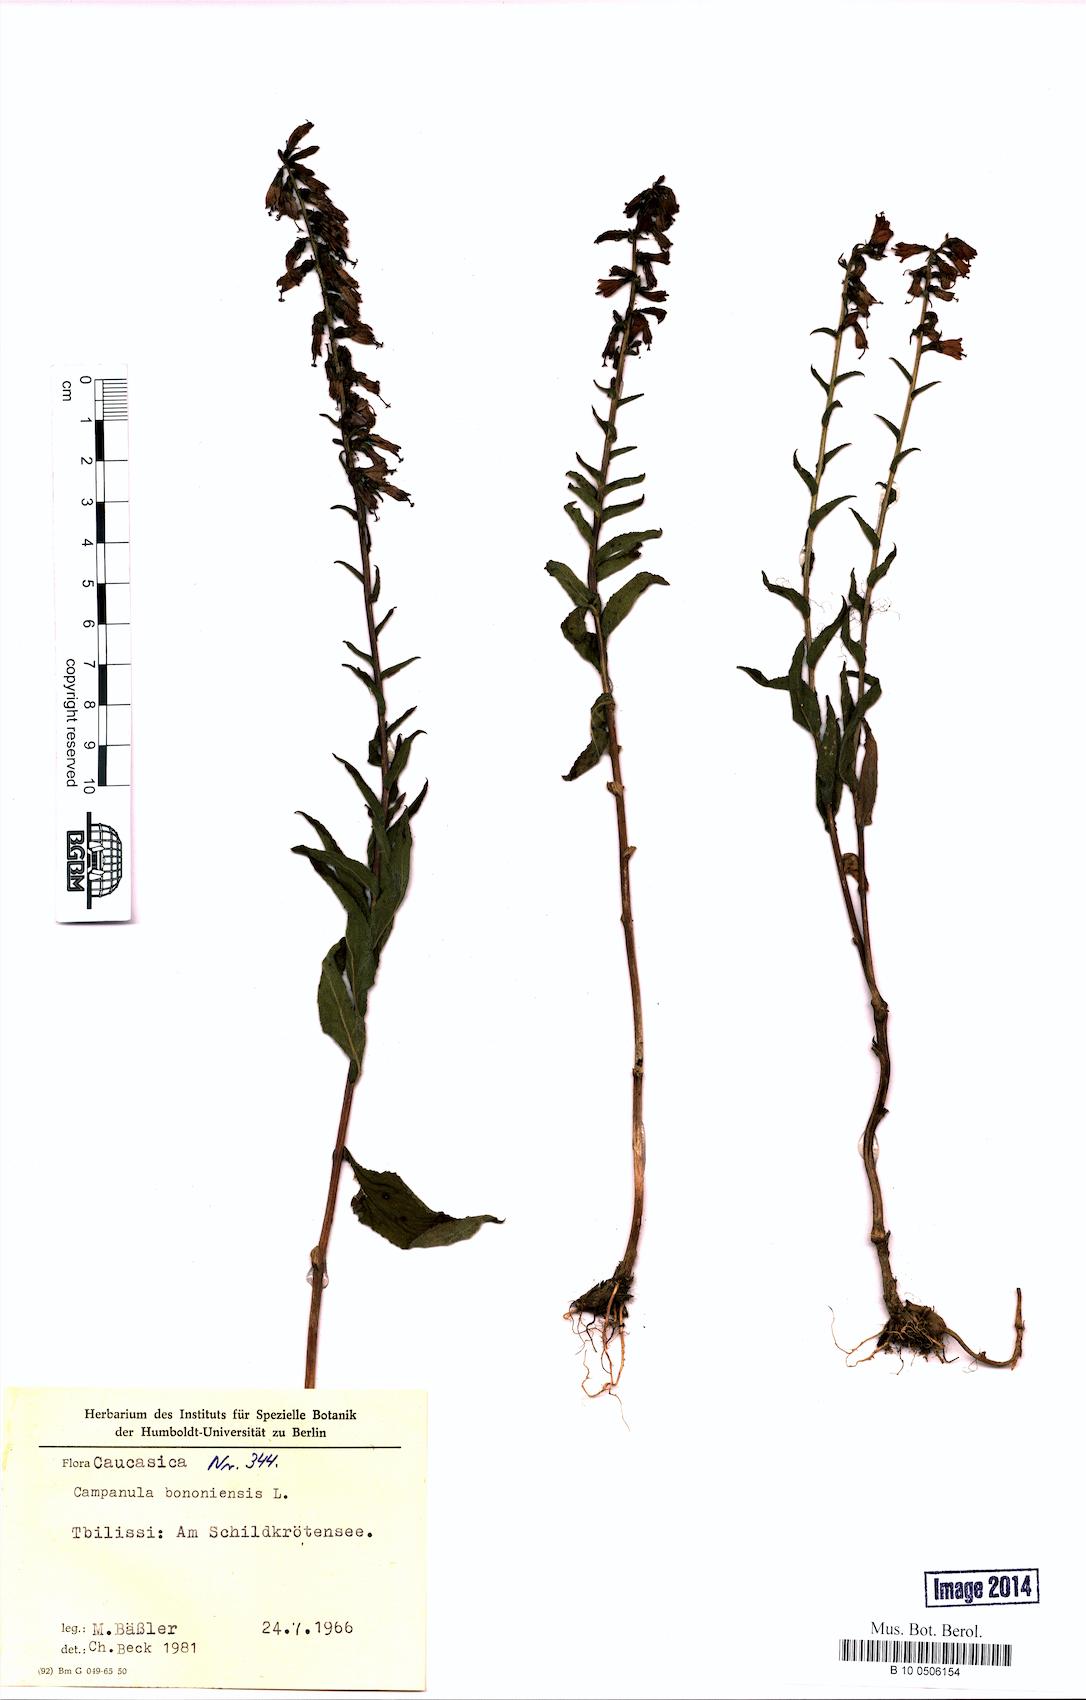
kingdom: Plantae
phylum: Tracheophyta
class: Magnoliopsida
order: Asterales
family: Campanulaceae
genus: Campanula
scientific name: Campanula bononiensis
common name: Pale bellflower
